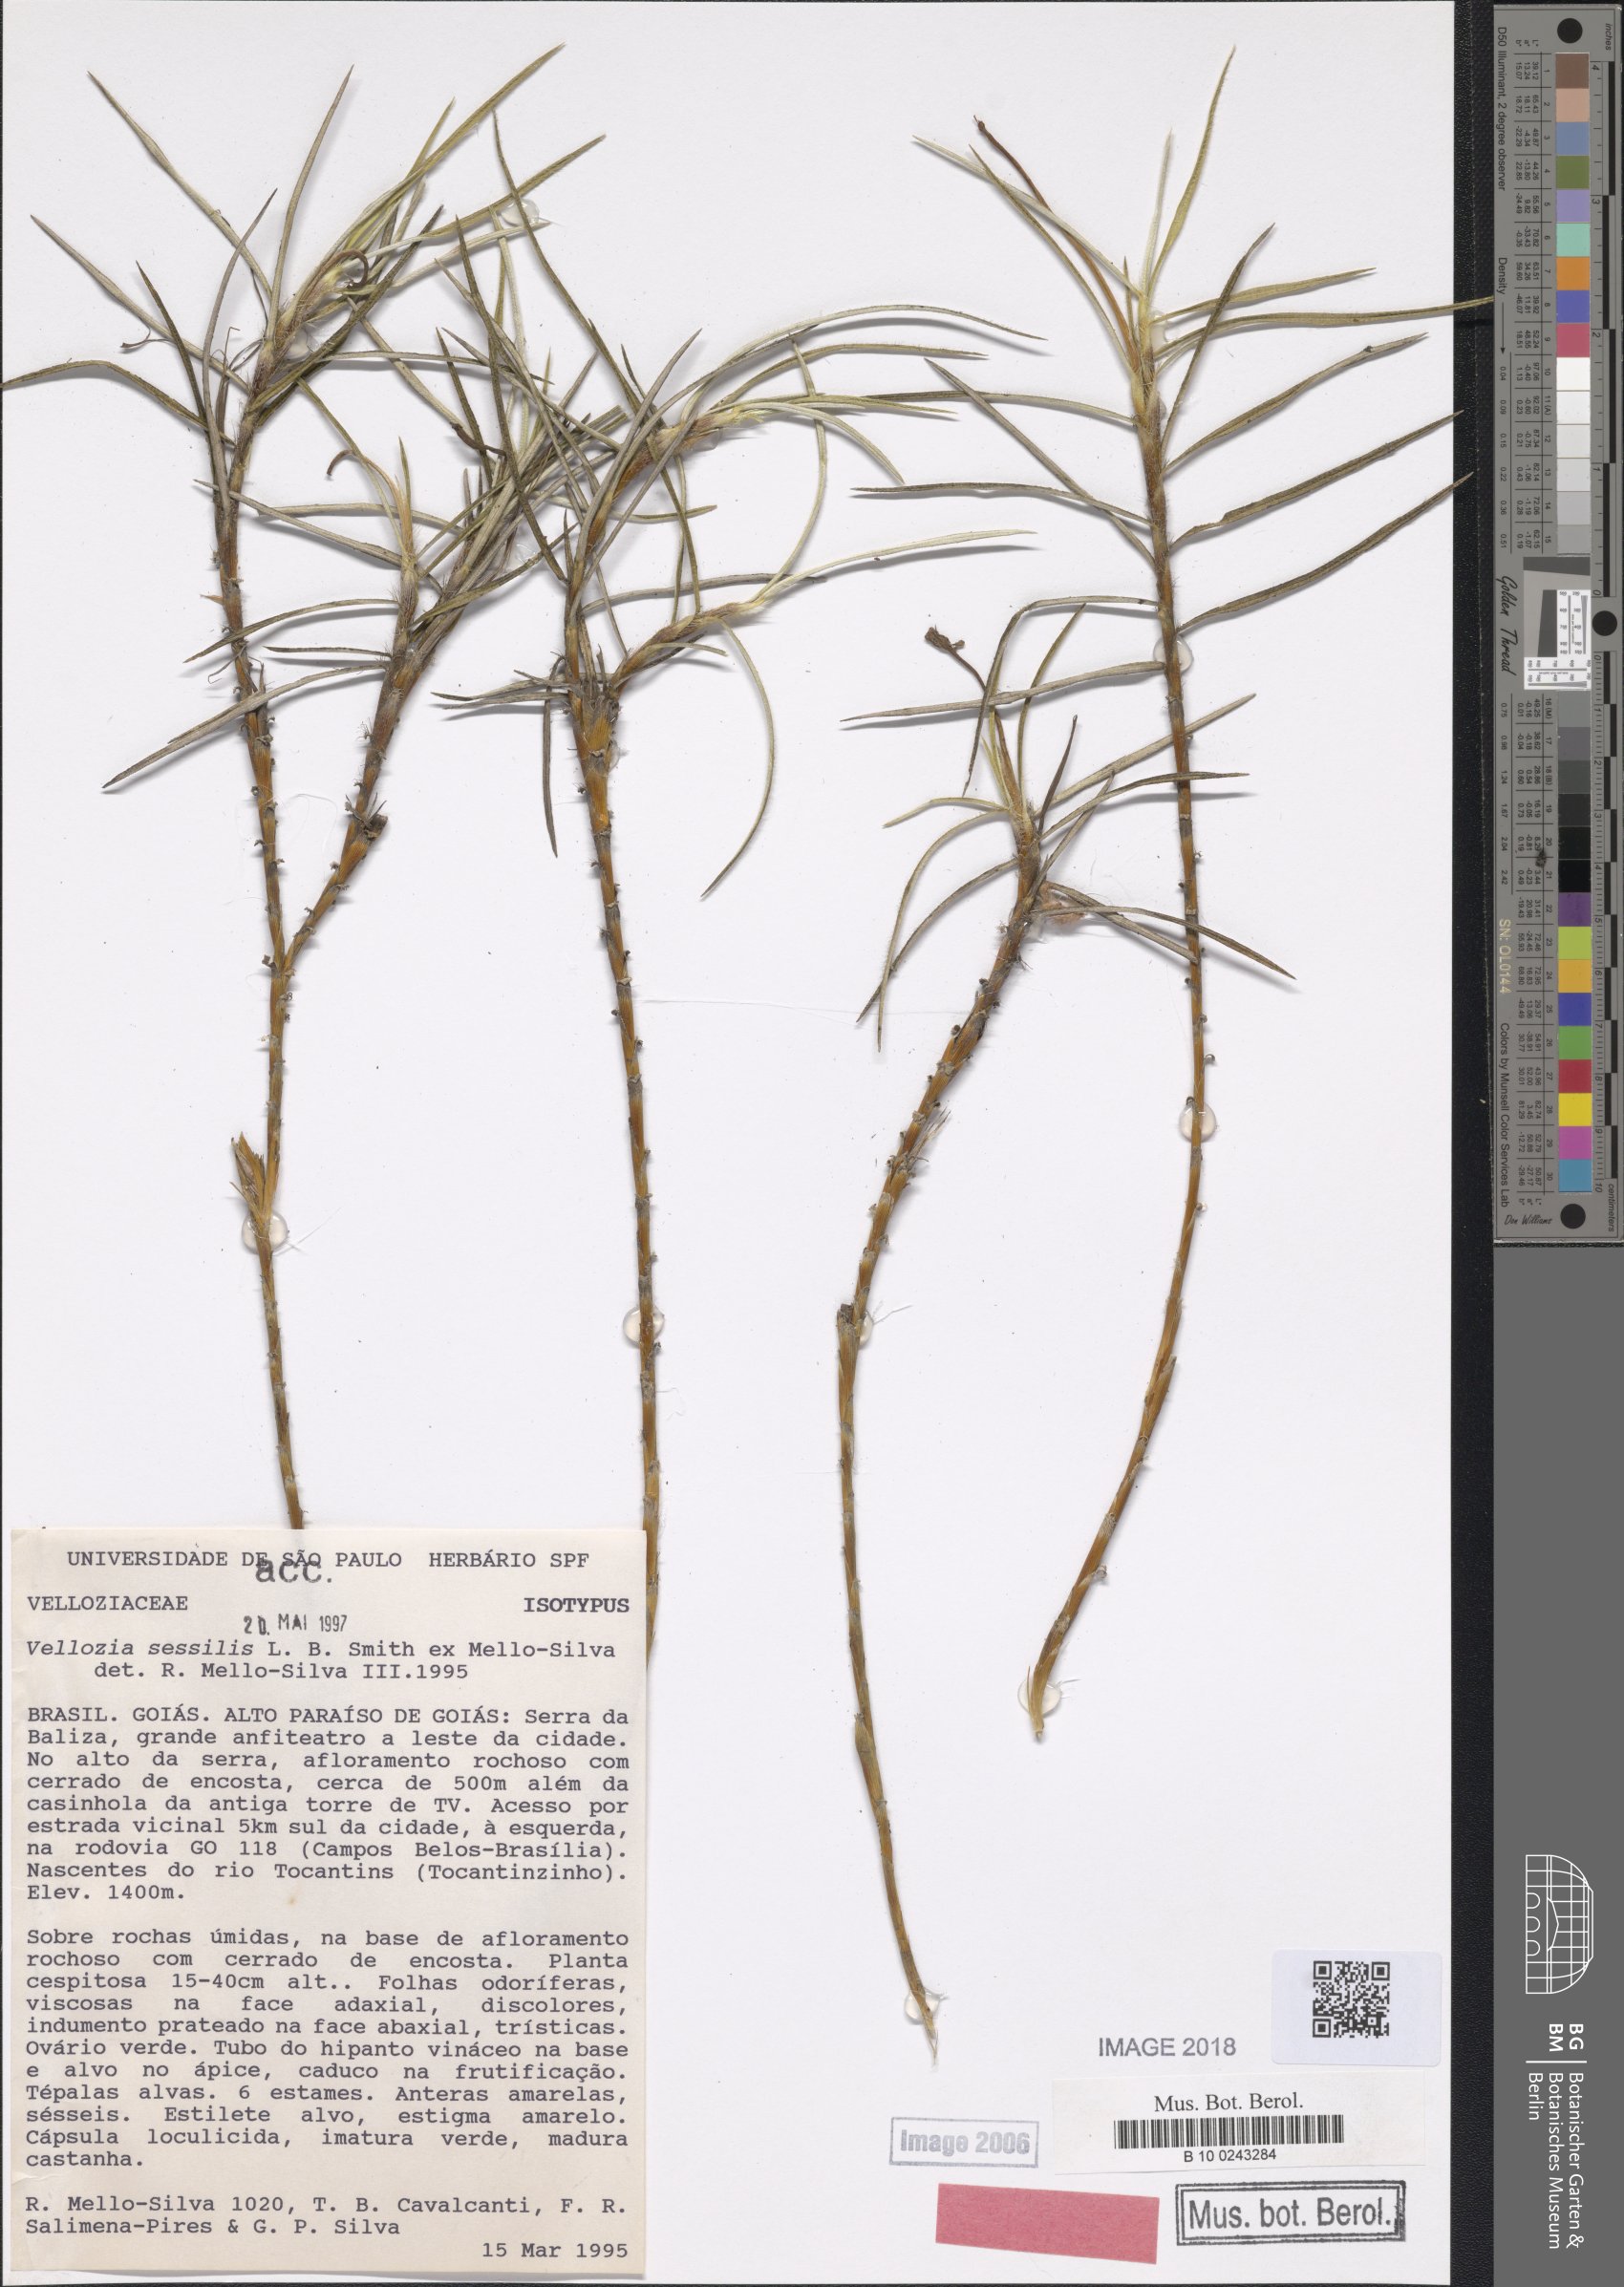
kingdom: Plantae
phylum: Tracheophyta
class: Liliopsida
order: Pandanales
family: Velloziaceae
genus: Vellozia
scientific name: Vellozia sessilis
